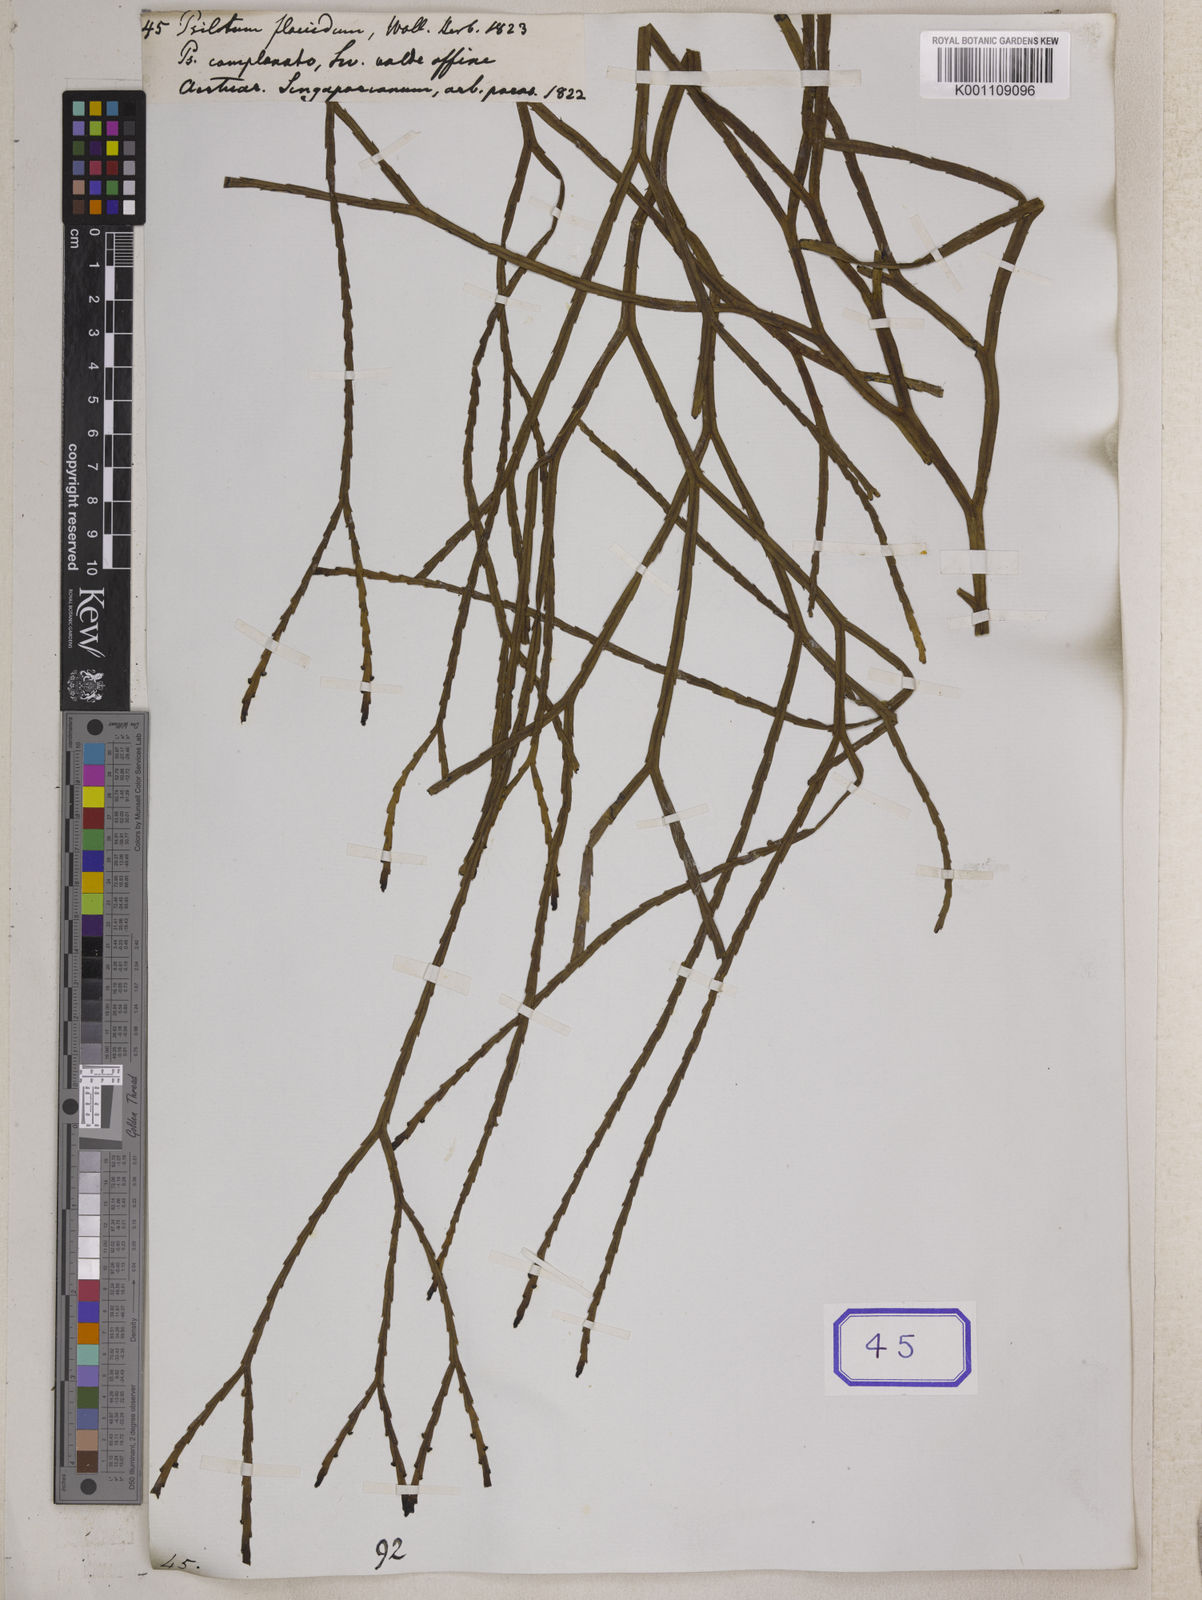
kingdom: Plantae
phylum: Tracheophyta
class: Polypodiopsida
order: Psilotales
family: Psilotaceae
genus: Psilotum
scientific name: Psilotum complanatum
